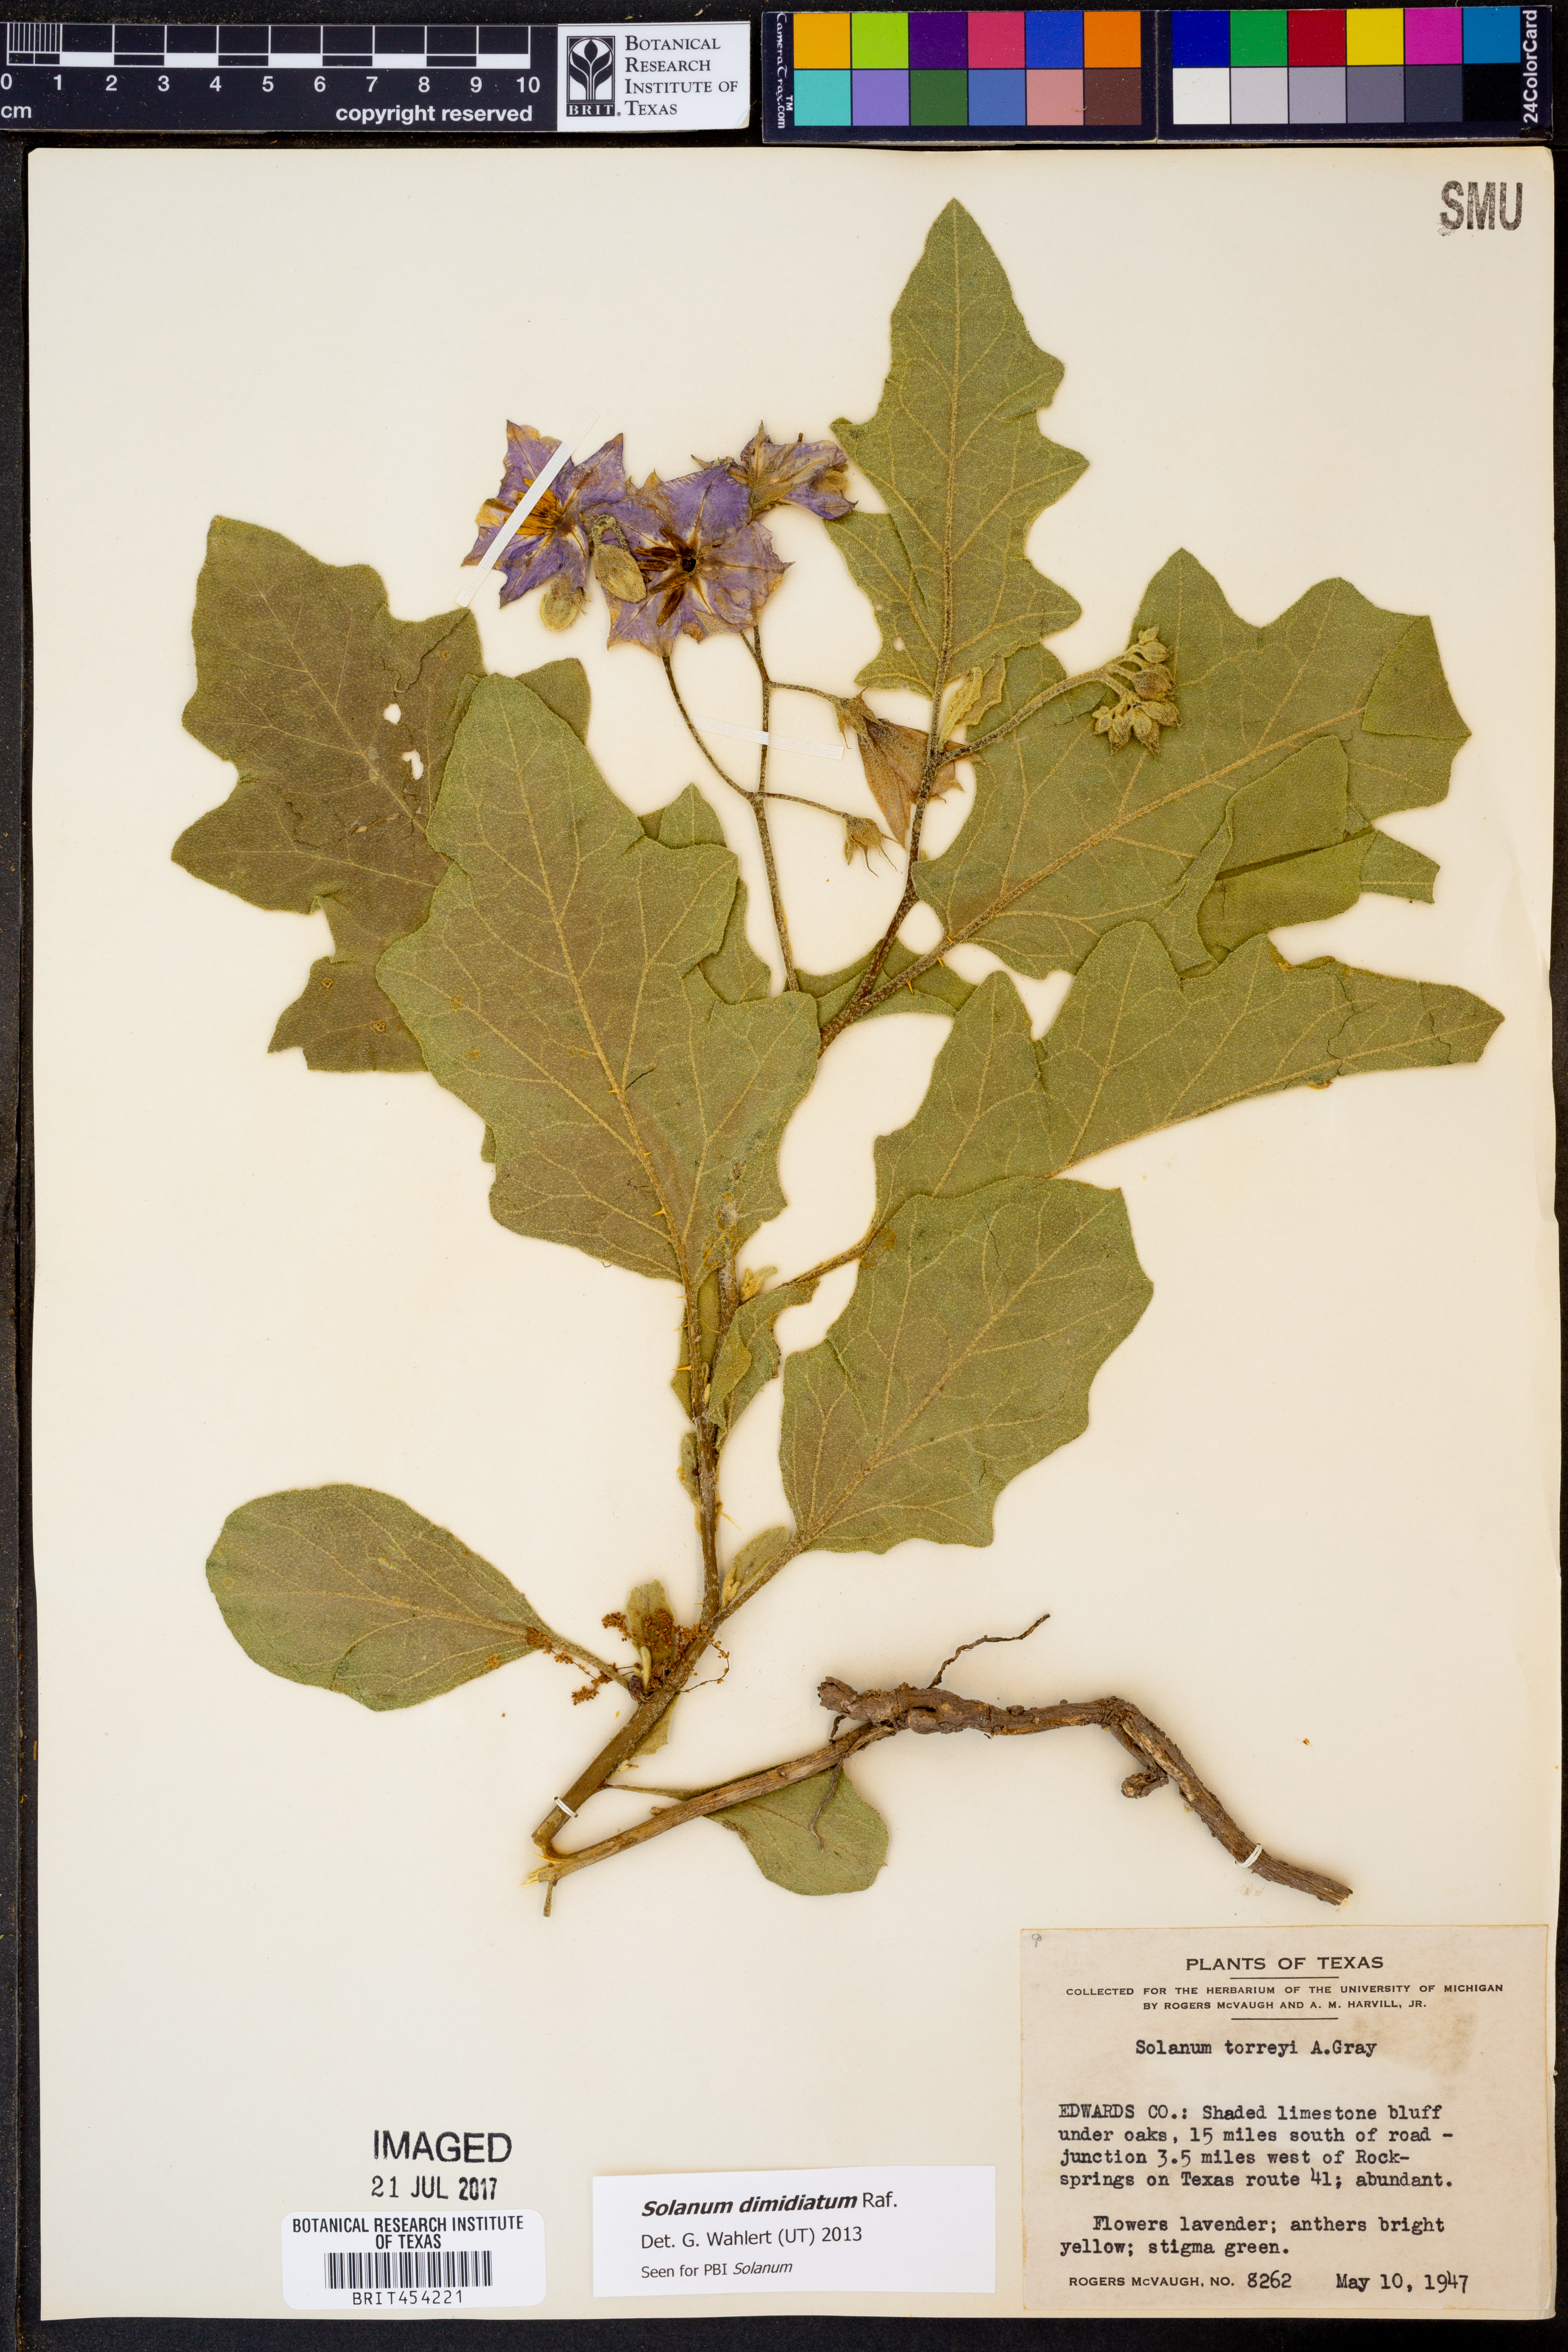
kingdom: Plantae
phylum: Tracheophyta
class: Magnoliopsida
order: Solanales
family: Solanaceae
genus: Solanum
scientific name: Solanum dimidiatum
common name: Carolina horse-nettle
